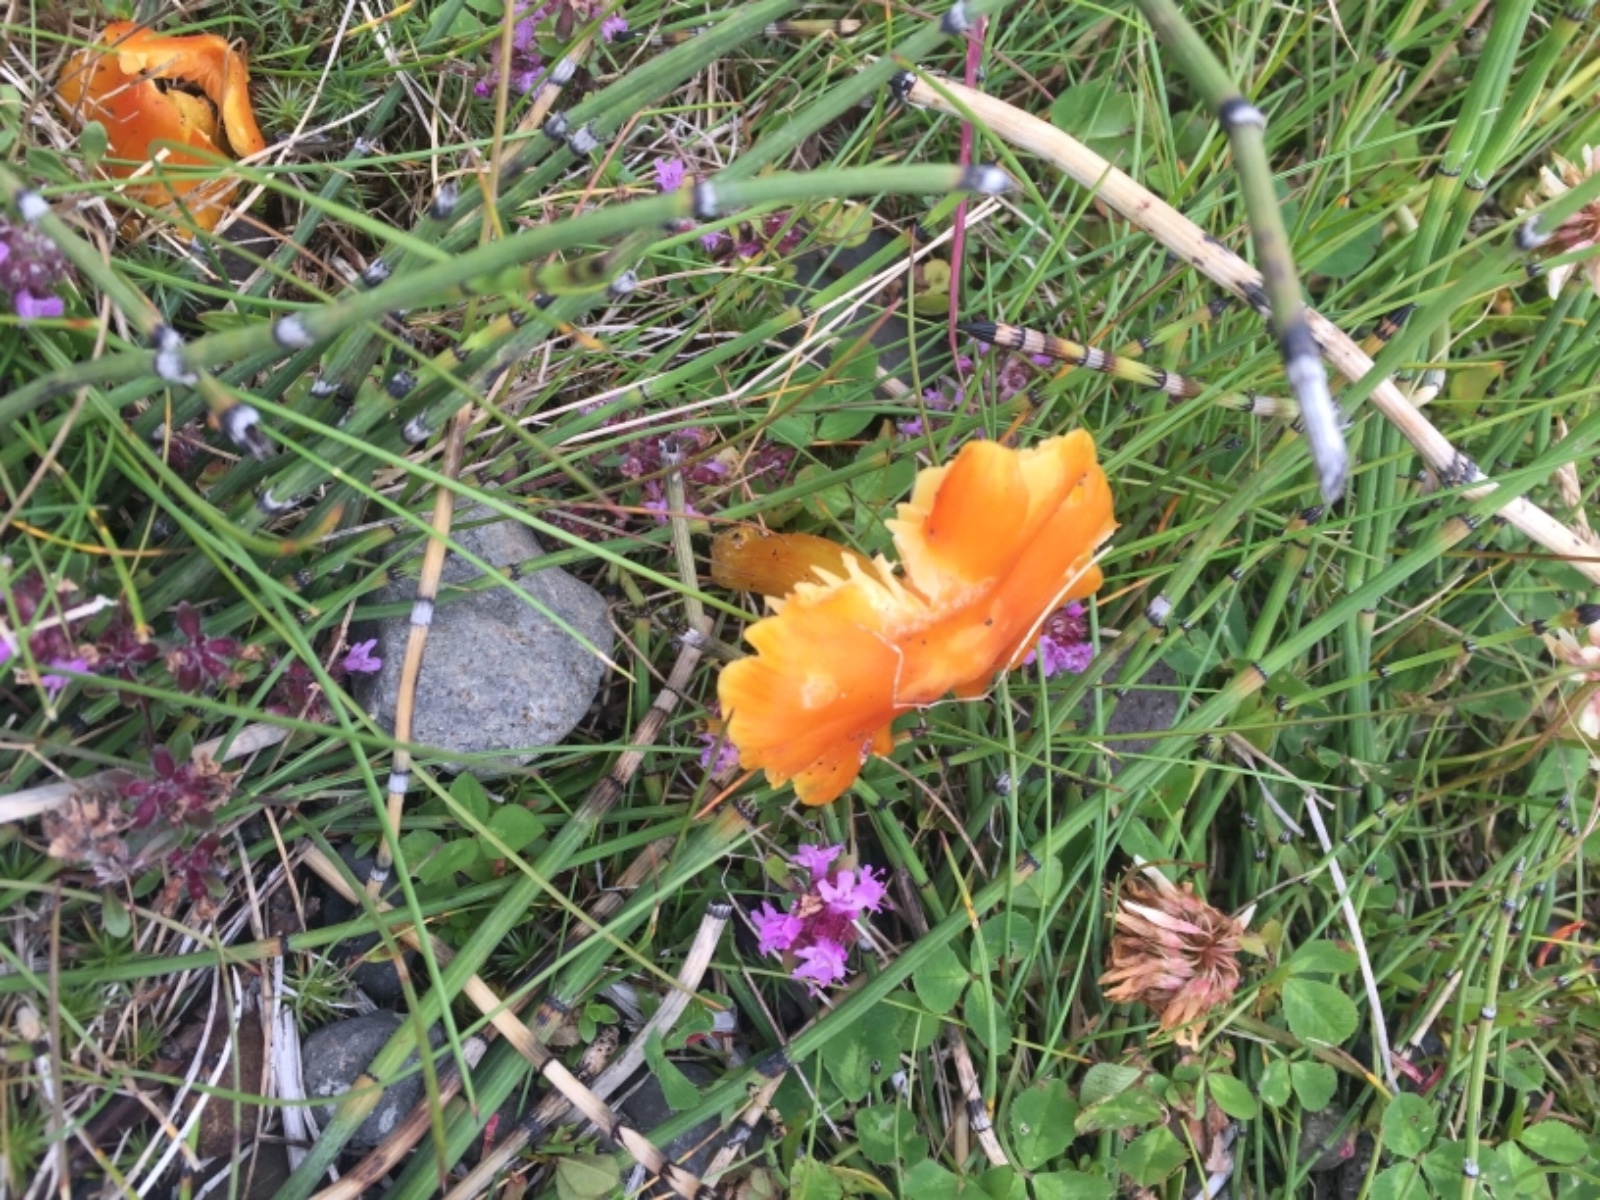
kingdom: Fungi
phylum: Basidiomycota
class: Agaricomycetes
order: Agaricales
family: Hygrophoraceae
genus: Hygrocybe
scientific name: Hygrocybe acutoconica
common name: spidspuklet vokshat
